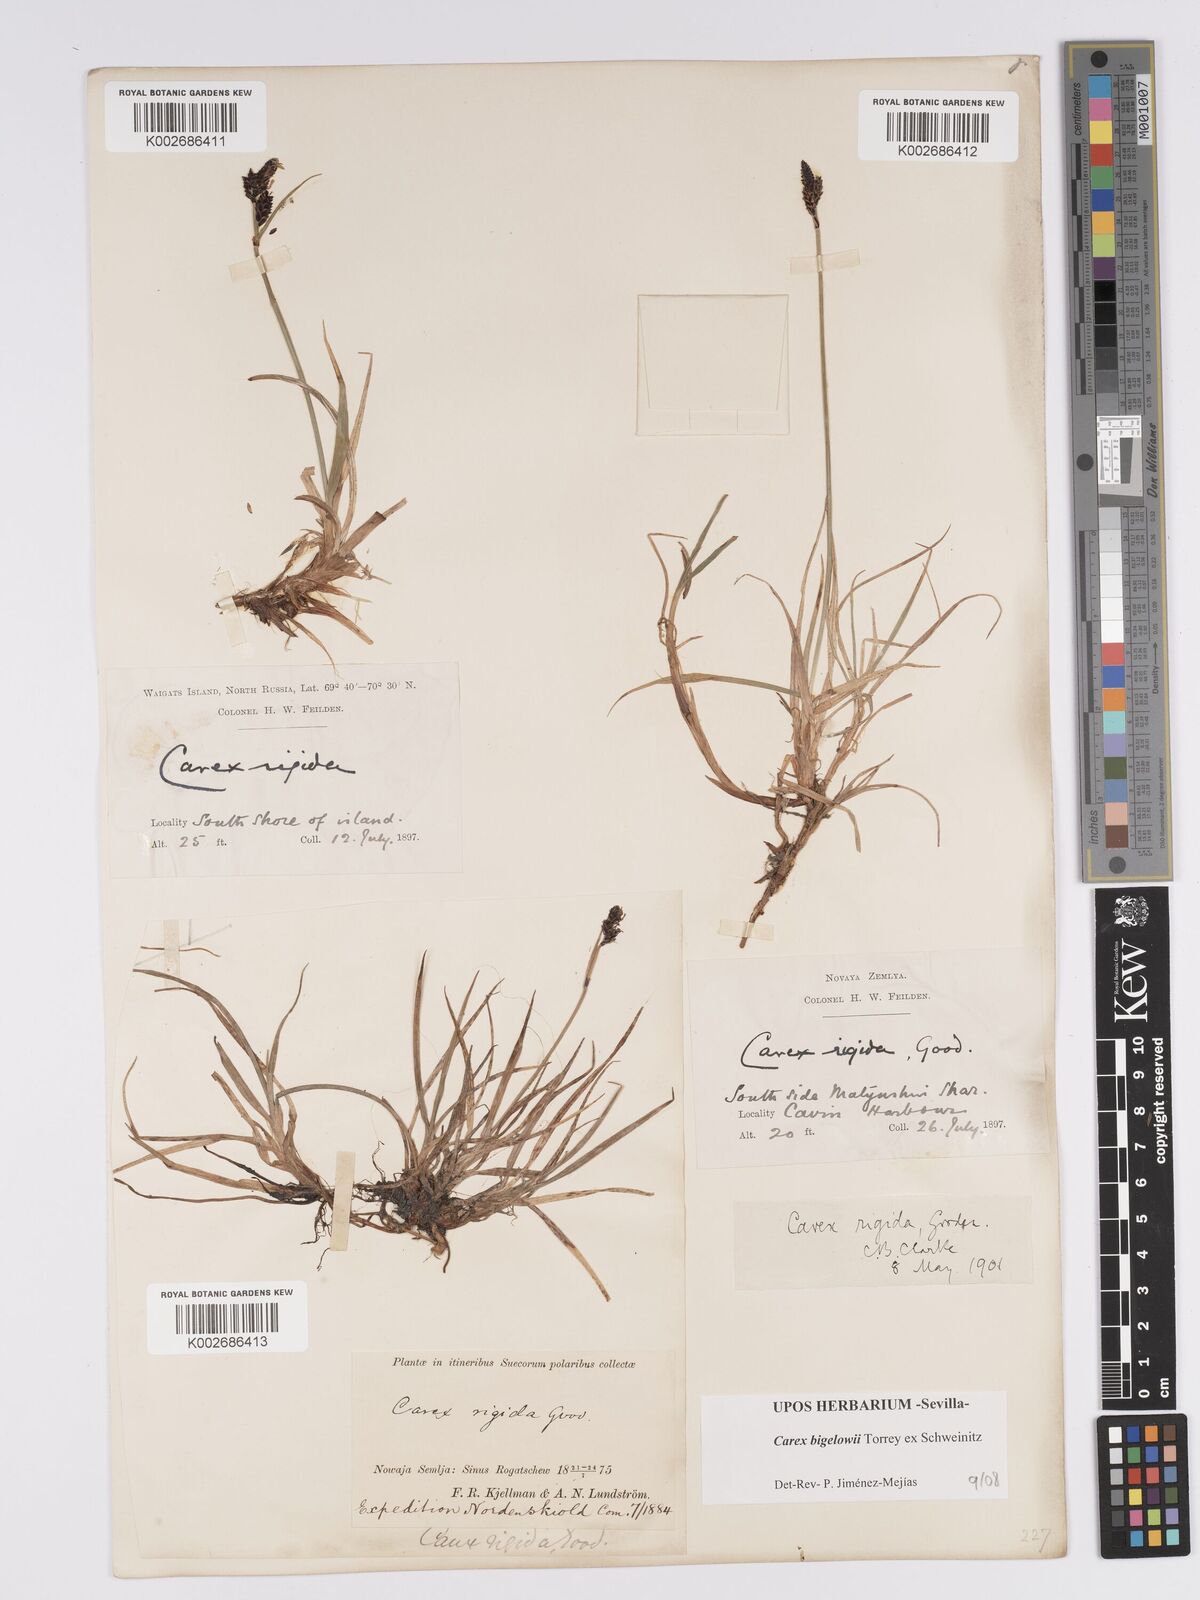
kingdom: Plantae
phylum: Tracheophyta
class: Liliopsida
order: Poales
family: Cyperaceae
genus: Carex
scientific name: Carex bigelowii
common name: Stiff sedge
